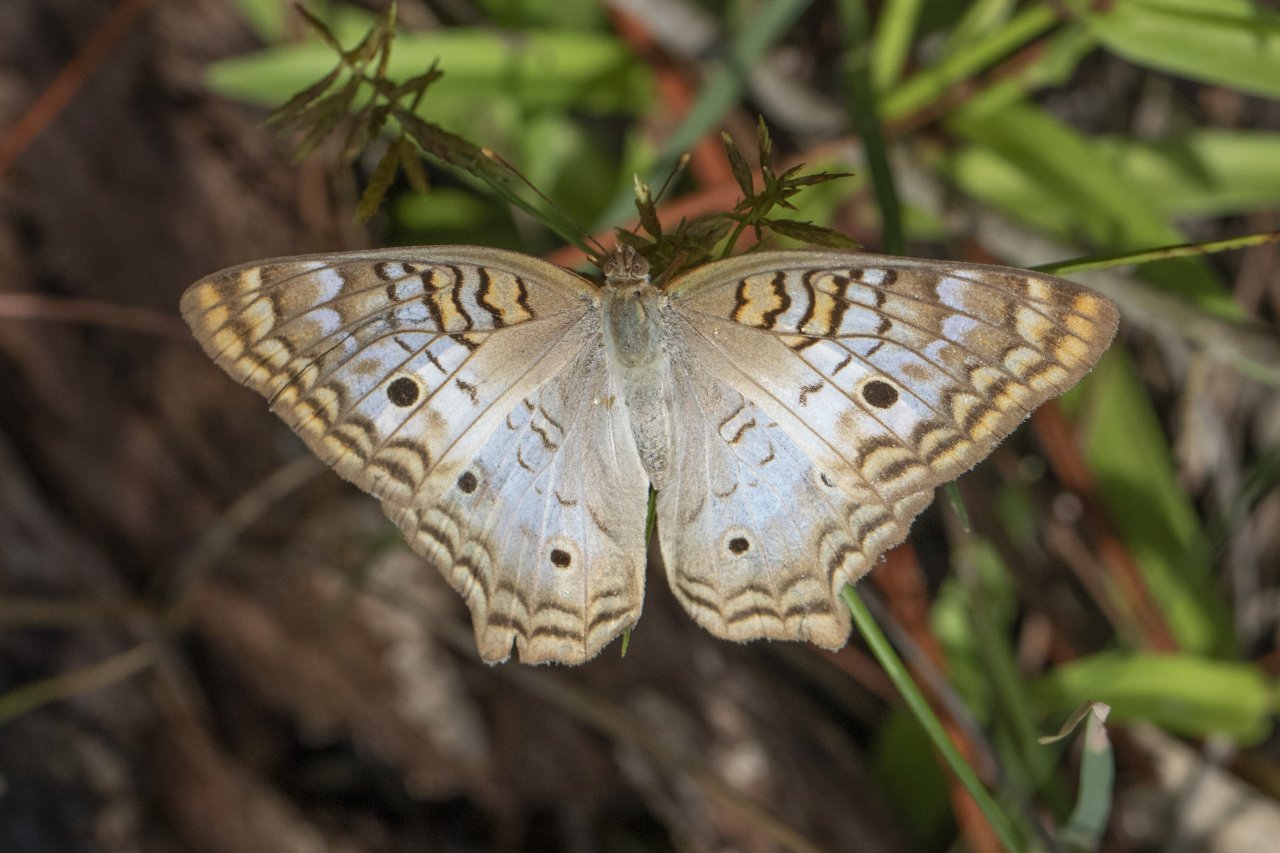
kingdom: Animalia
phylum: Arthropoda
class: Insecta
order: Lepidoptera
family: Nymphalidae
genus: Anartia
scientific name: Anartia jatrophae
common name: White Peacock
